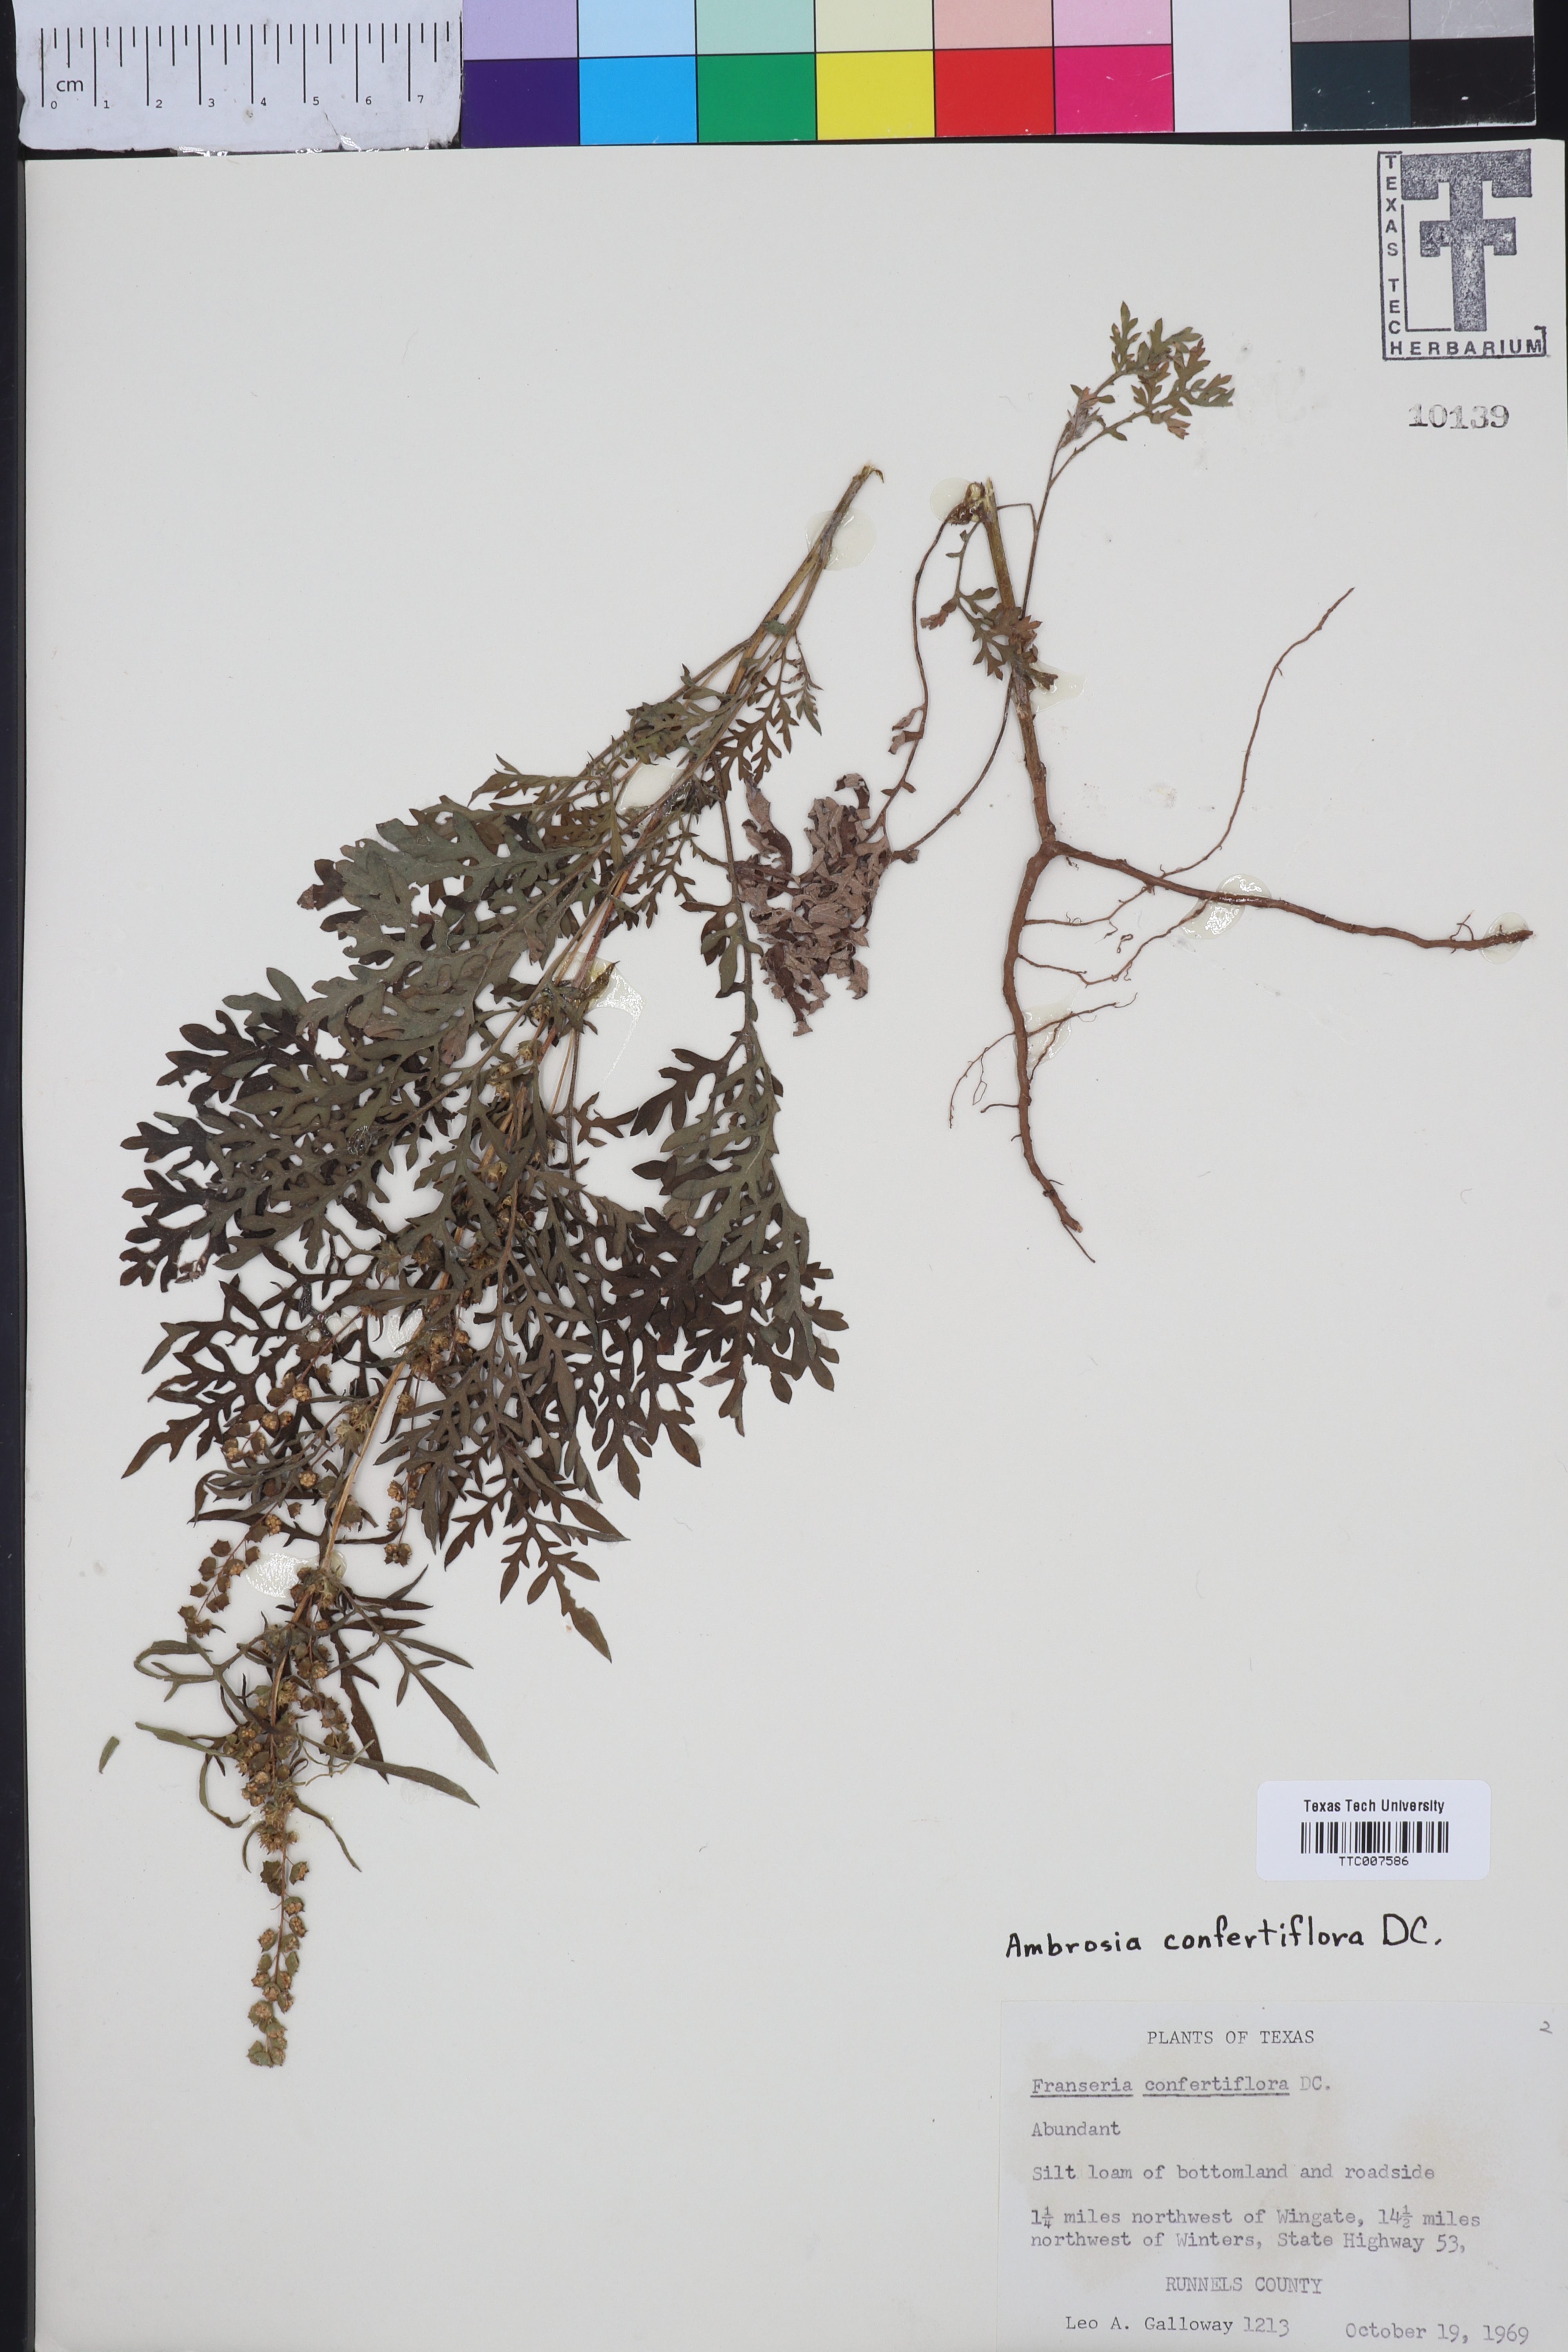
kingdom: Plantae
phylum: Tracheophyta
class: Magnoliopsida
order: Asterales
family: Asteraceae
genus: Ambrosia
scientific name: Ambrosia confertiflora
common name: Bur ragweed
